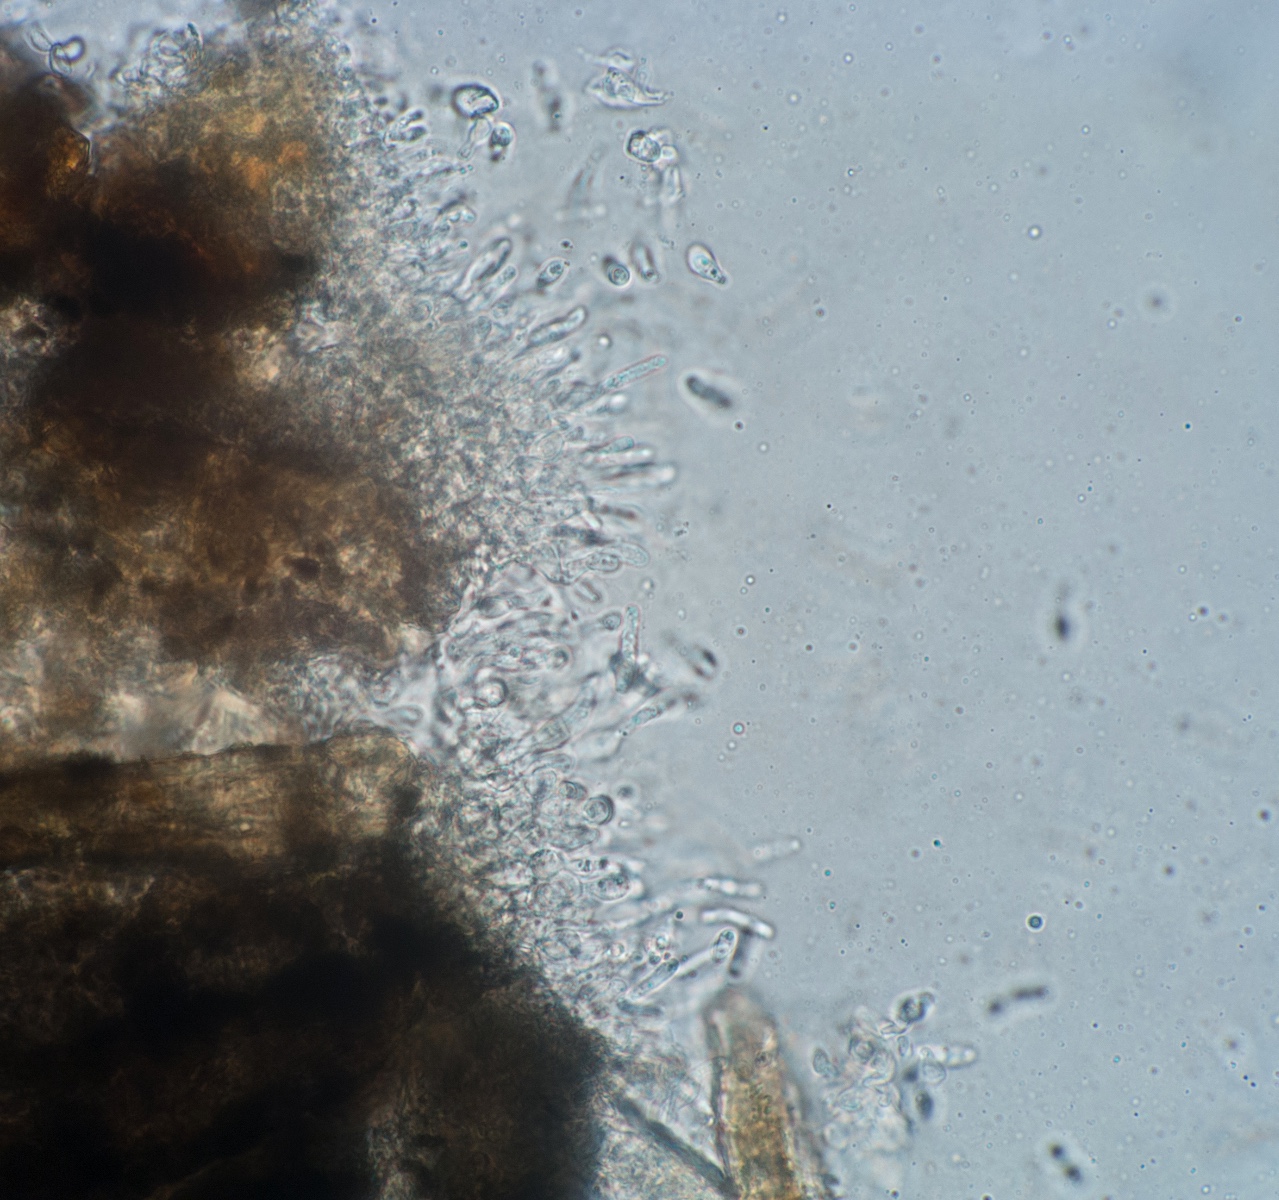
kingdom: Fungi
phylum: Ascomycota
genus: Sirozythiella
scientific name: Sirozythiella sydowiana
